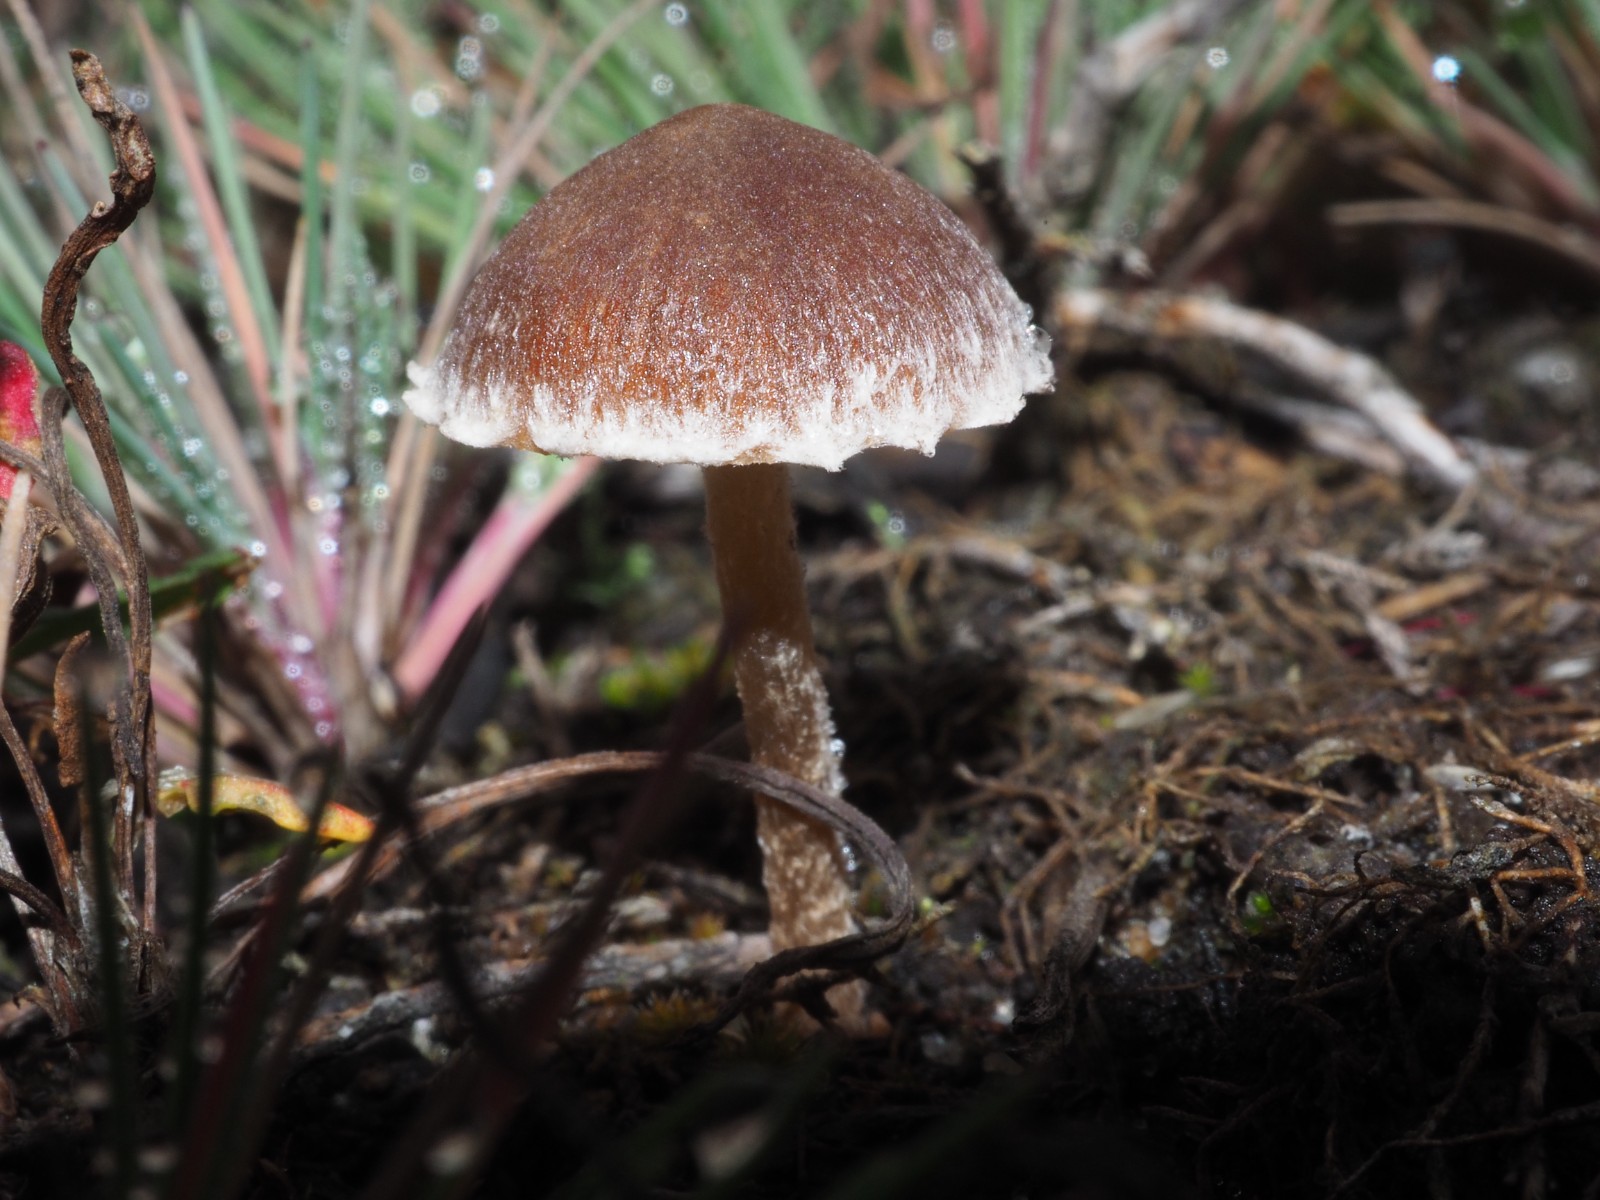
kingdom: Fungi
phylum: Basidiomycota
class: Agaricomycetes
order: Agaricales
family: Psathyrellaceae
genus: Psathyrella
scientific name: Psathyrella flexispora
